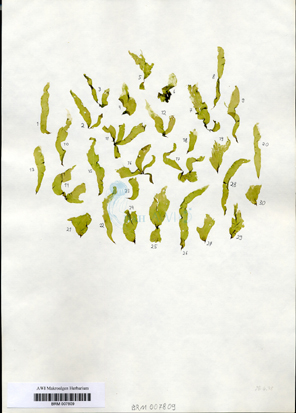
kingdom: Plantae
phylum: Chlorophyta
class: Ulvophyceae
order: Ulvales
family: Ulvaceae
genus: Ulva
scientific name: Ulva tenera
